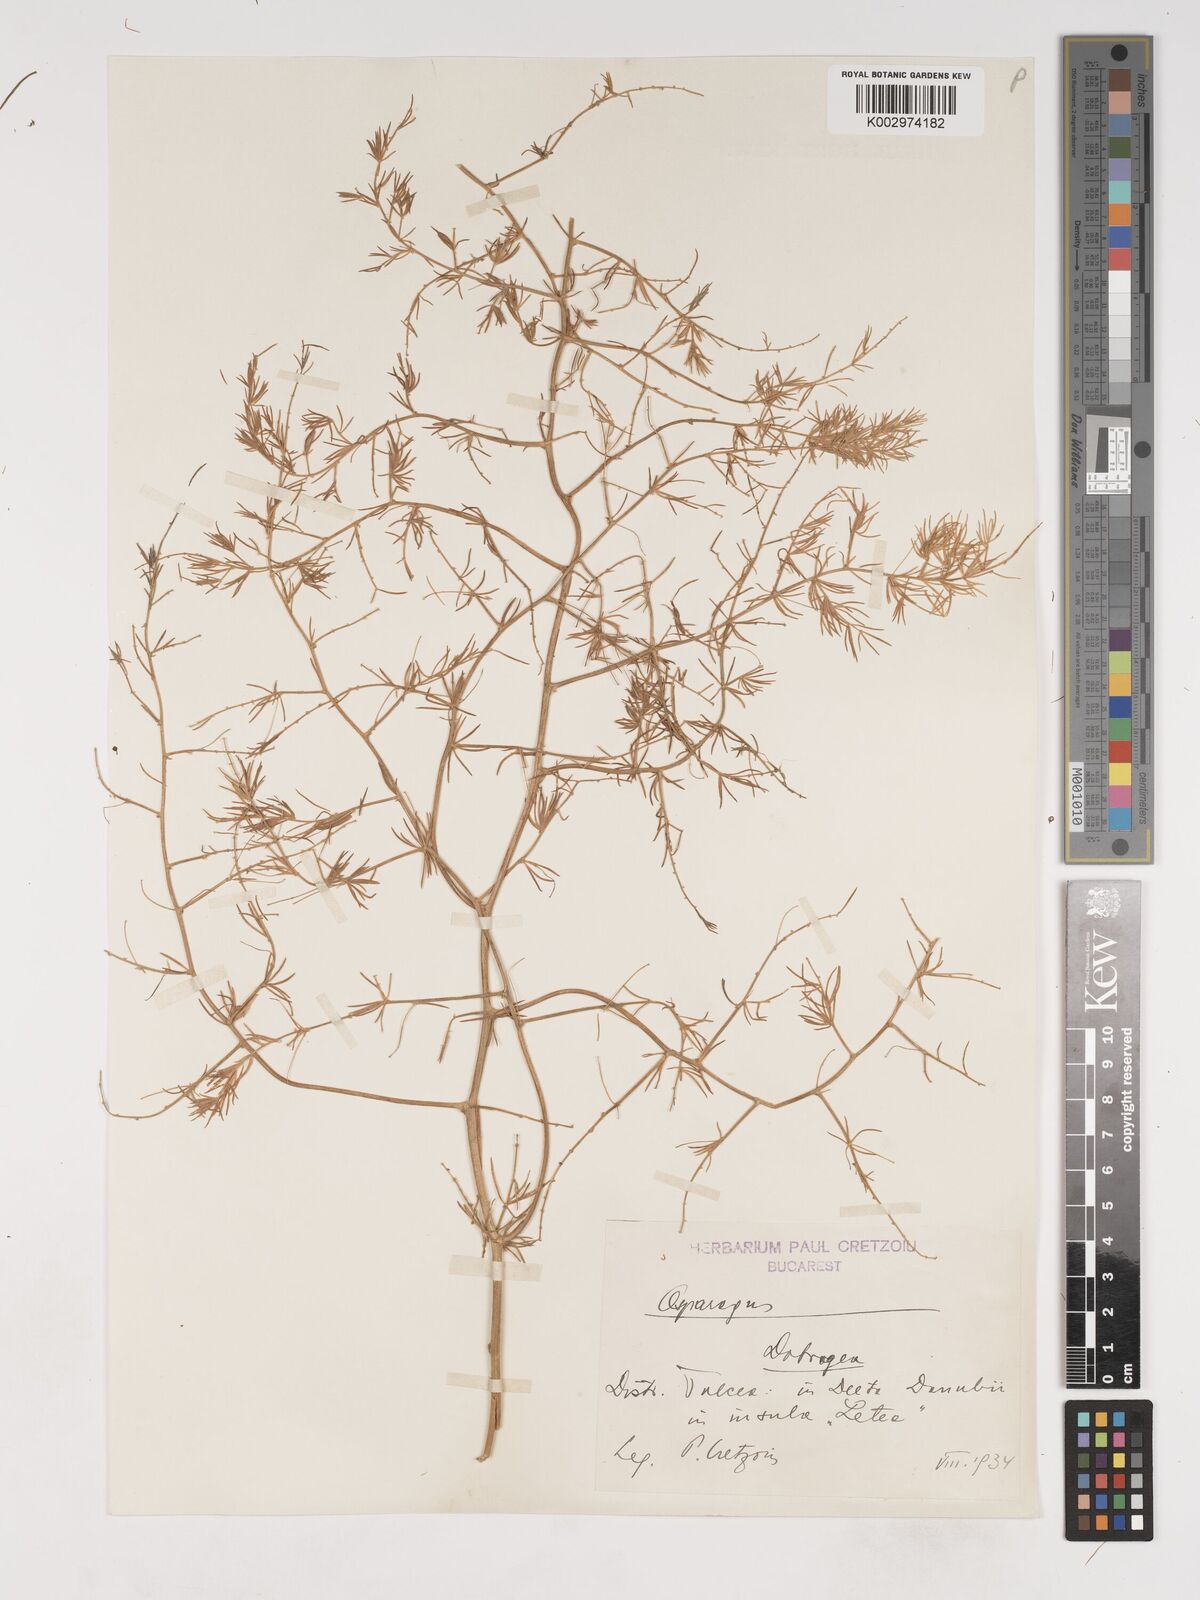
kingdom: Plantae
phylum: Tracheophyta
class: Liliopsida
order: Asparagales
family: Asparagaceae
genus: Asparagus
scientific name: Asparagus
